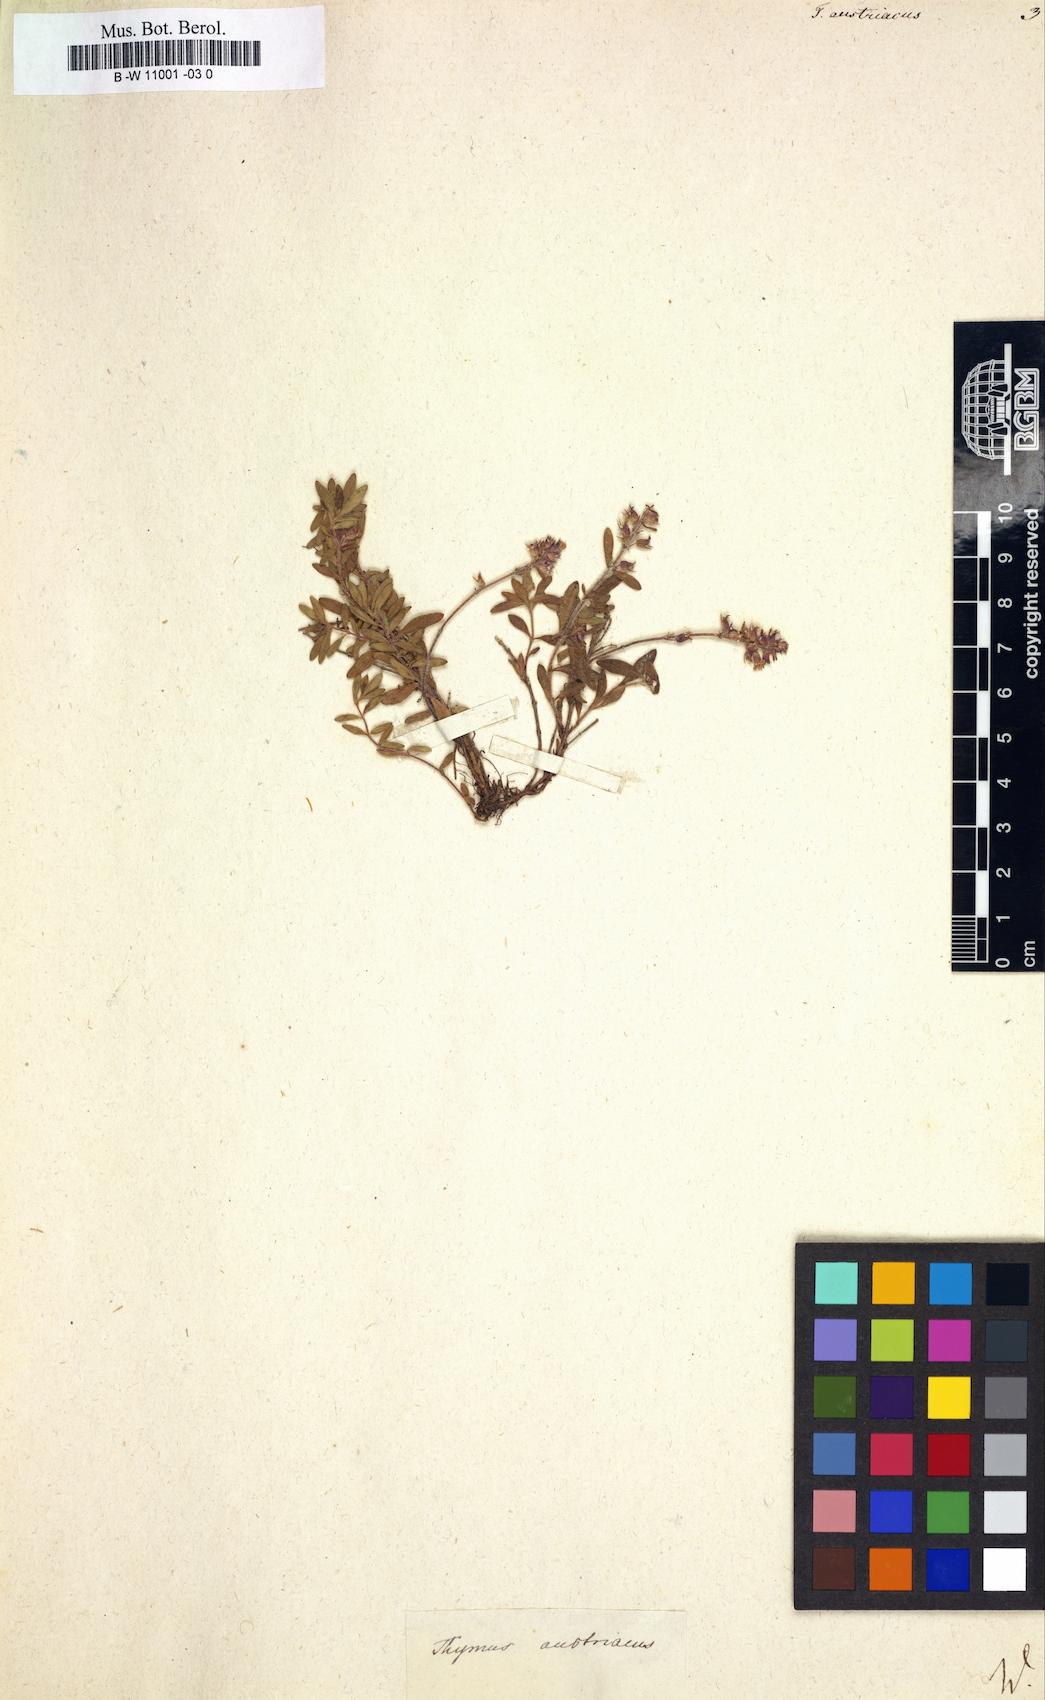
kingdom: Plantae
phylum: Tracheophyta
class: Magnoliopsida
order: Lamiales
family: Lamiaceae
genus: Thymus
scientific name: Thymus odoratissimus
